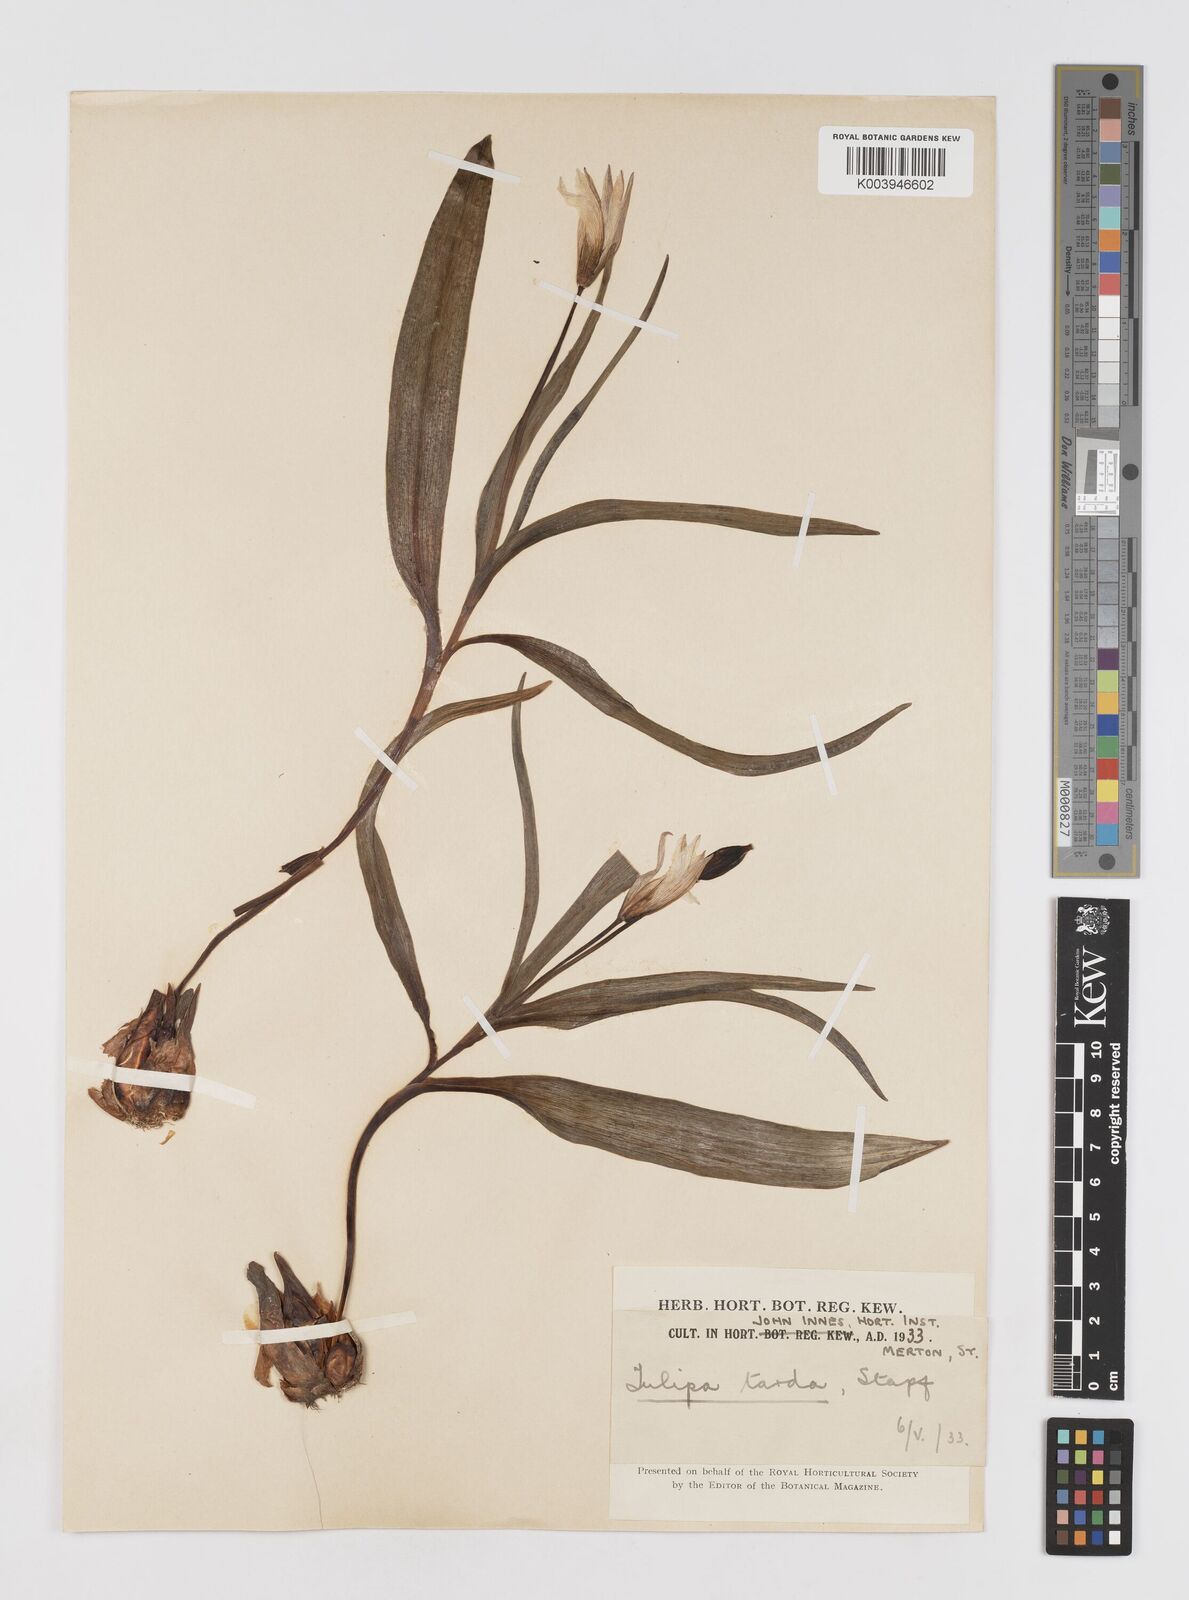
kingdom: Plantae
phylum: Tracheophyta
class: Liliopsida
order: Liliales
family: Liliaceae
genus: Tulipa
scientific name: Tulipa urumiensis
